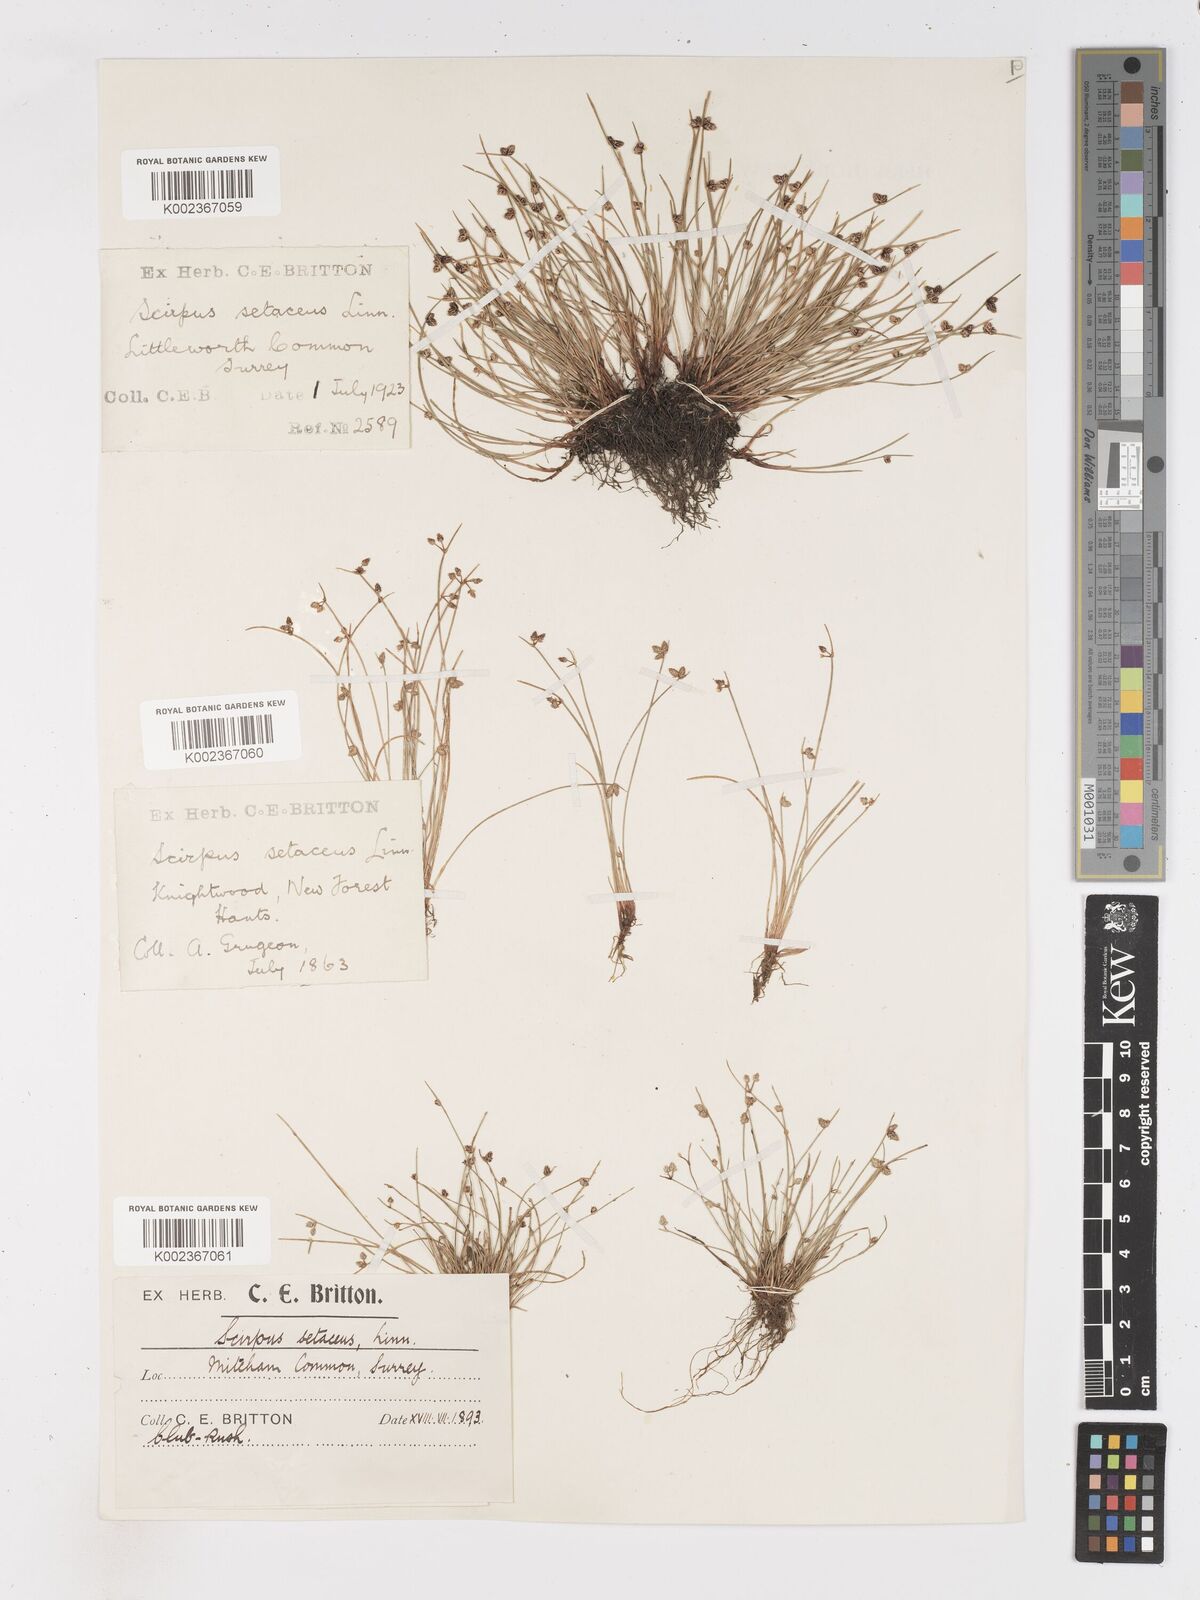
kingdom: Plantae
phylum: Tracheophyta
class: Liliopsida
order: Poales
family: Cyperaceae
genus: Isolepis
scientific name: Isolepis setacea
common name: Bristle club-rush
